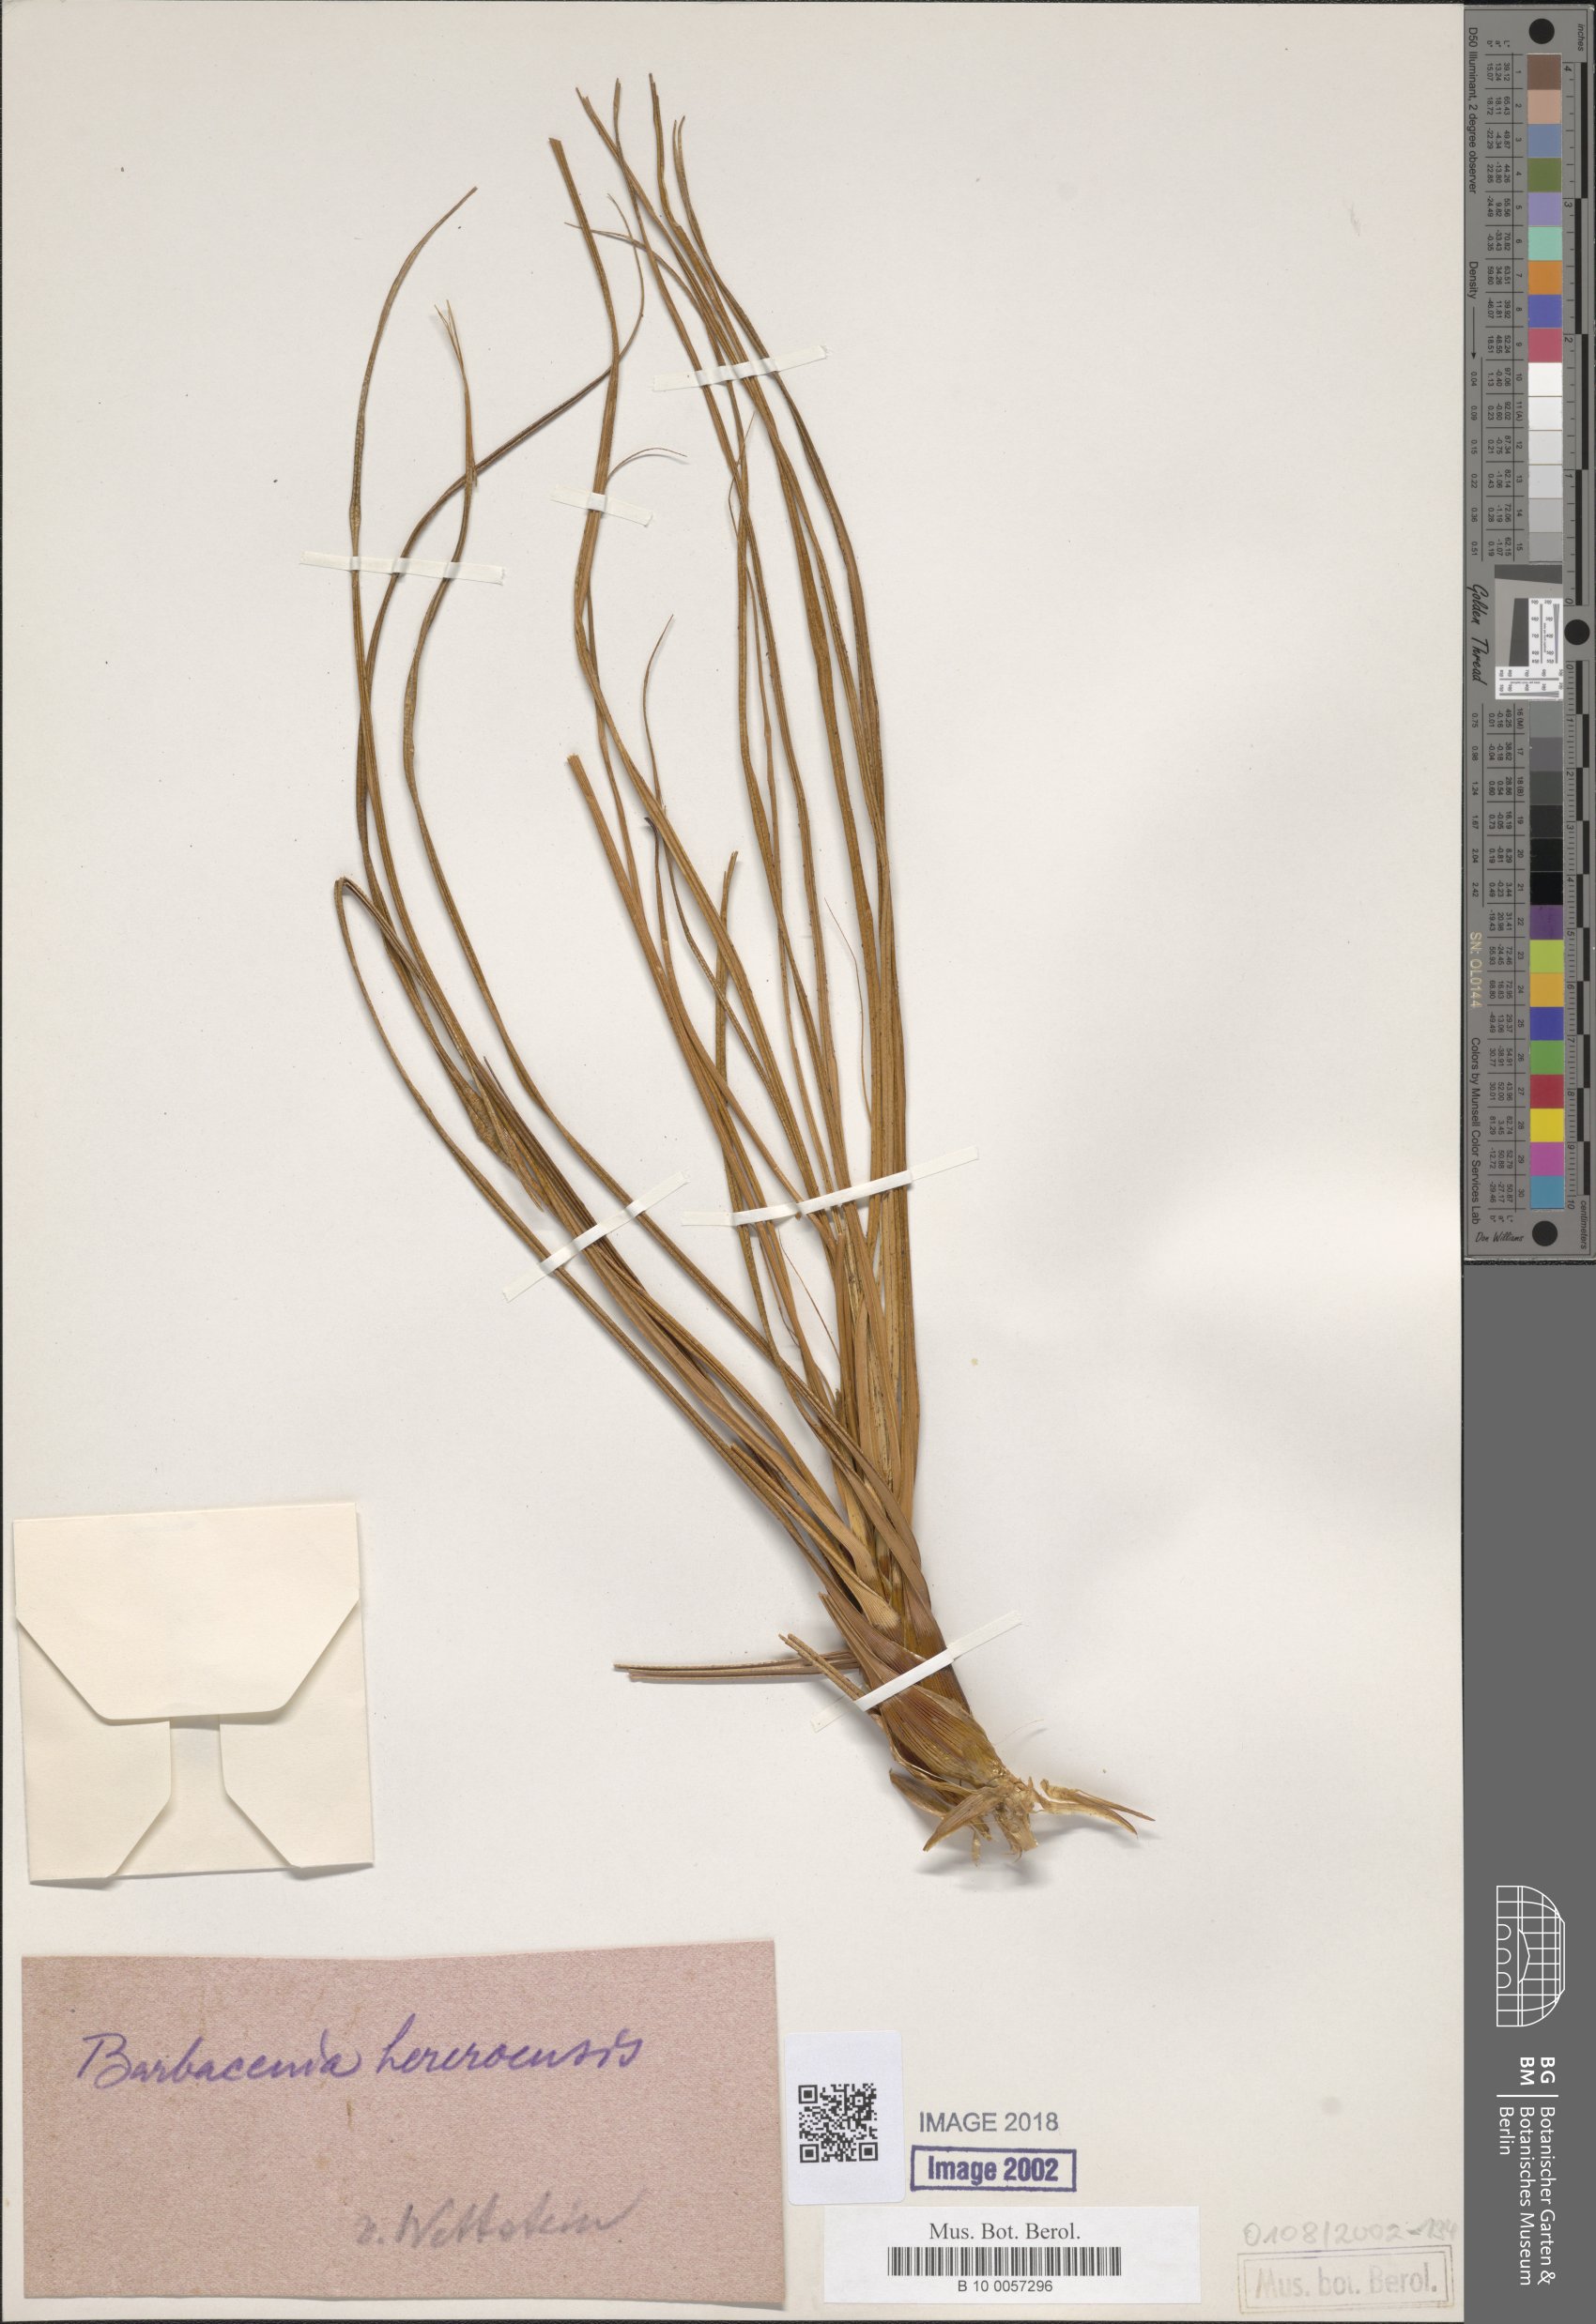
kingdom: Plantae
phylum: Tracheophyta
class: Liliopsida
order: Pandanales
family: Velloziaceae
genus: Xerophyta
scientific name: Xerophyta rosea
